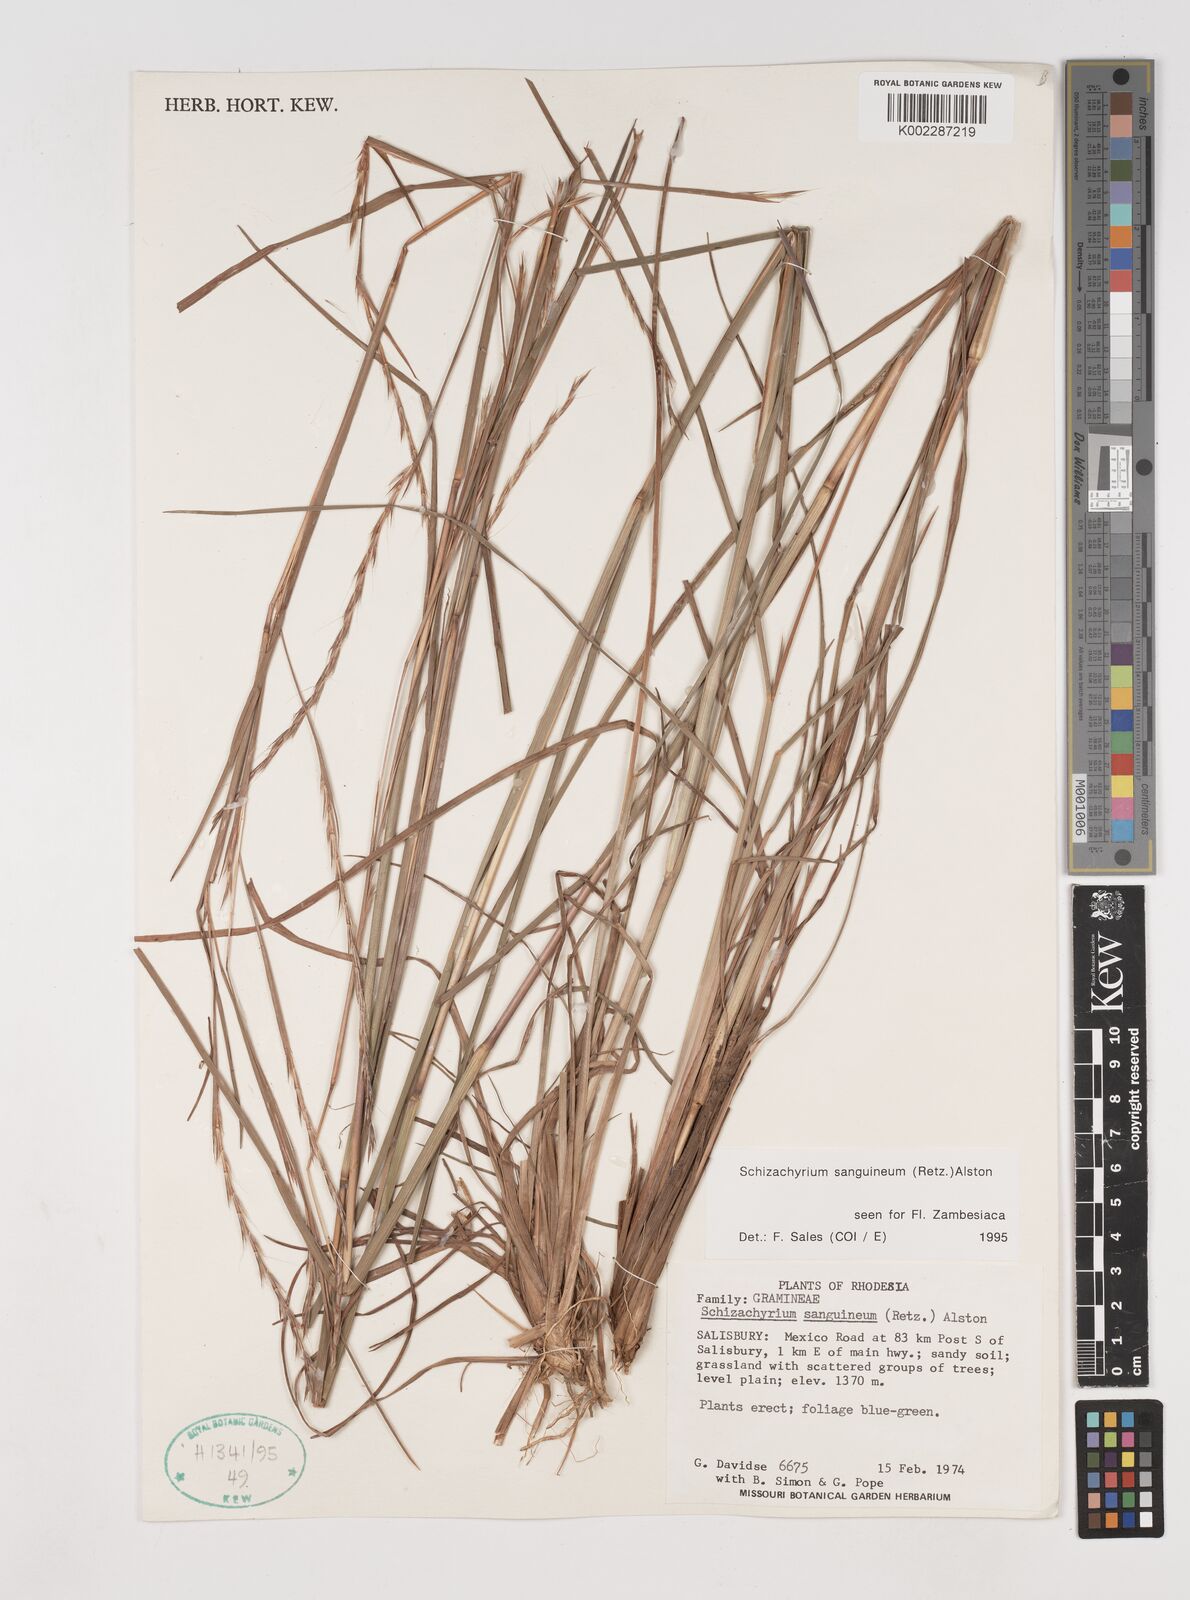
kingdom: Plantae
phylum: Tracheophyta
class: Liliopsida
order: Poales
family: Poaceae
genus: Schizachyrium
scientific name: Schizachyrium sanguineum
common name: Crimson bluestem
